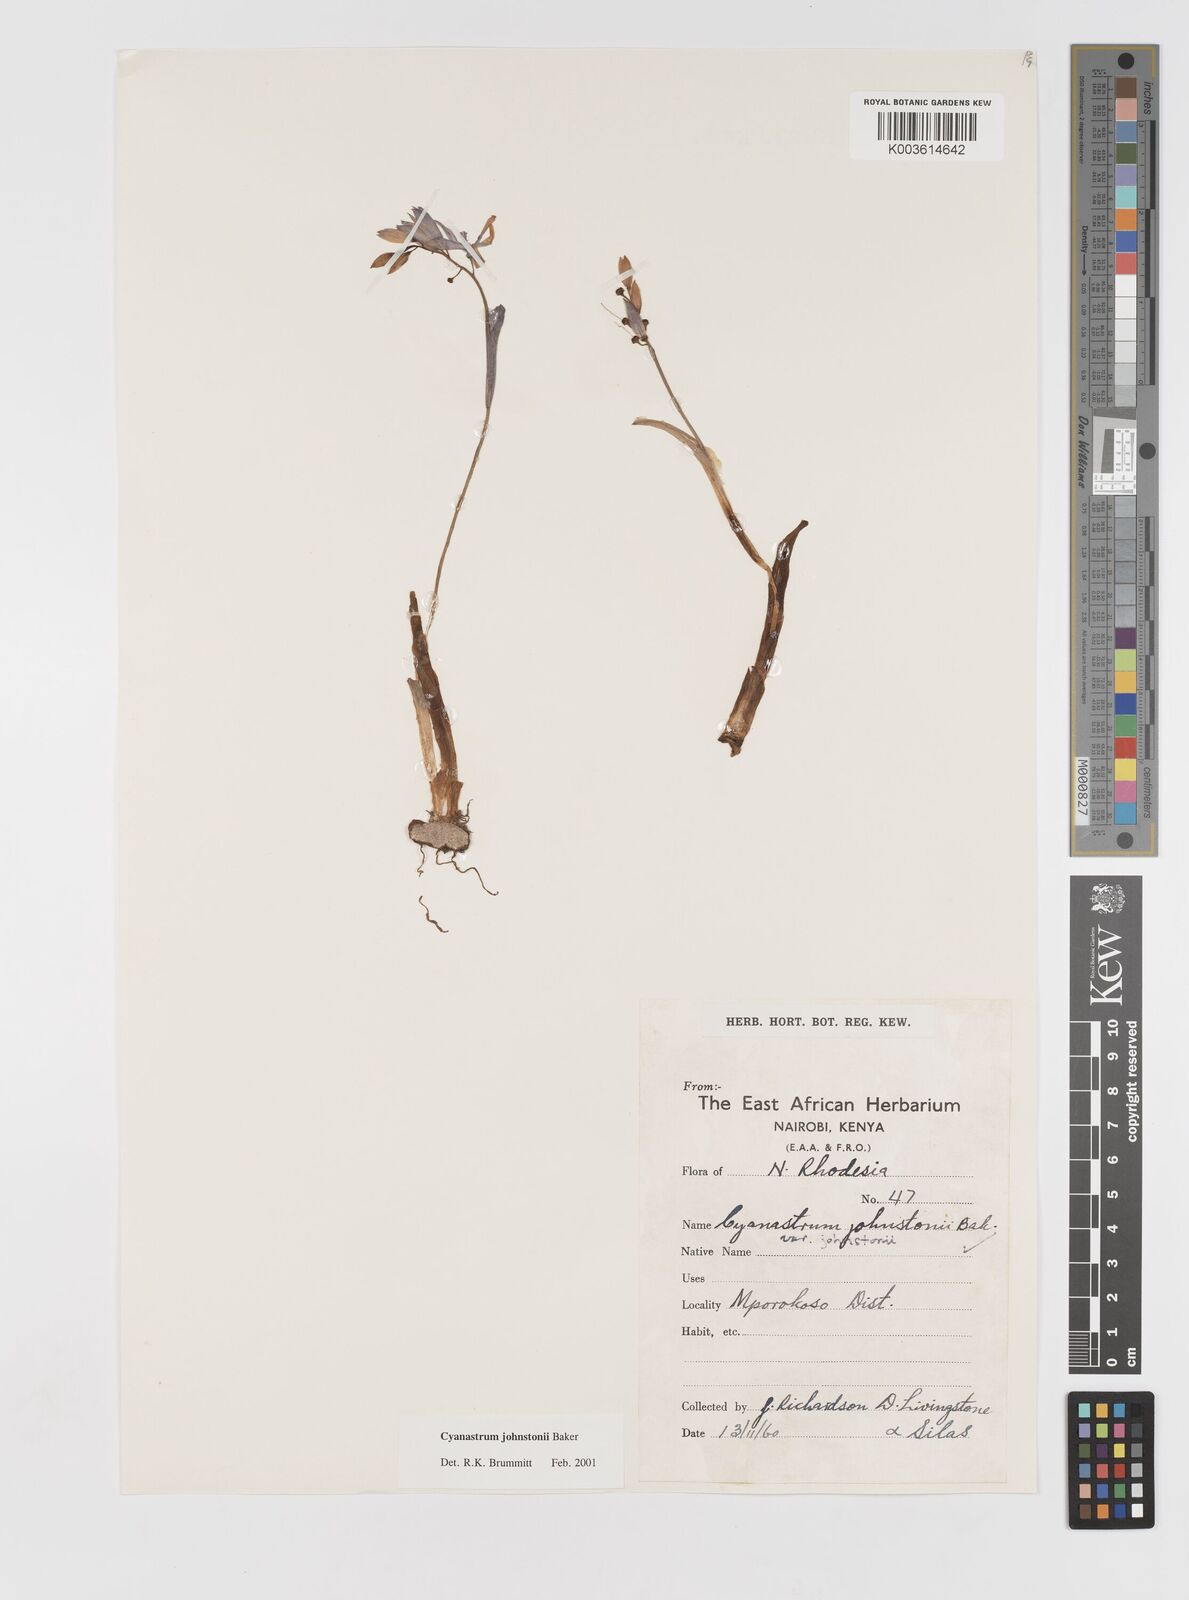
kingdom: Plantae
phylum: Tracheophyta
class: Liliopsida
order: Asparagales
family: Tecophilaeaceae
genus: Cyanastrum
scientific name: Cyanastrum johnstonii
